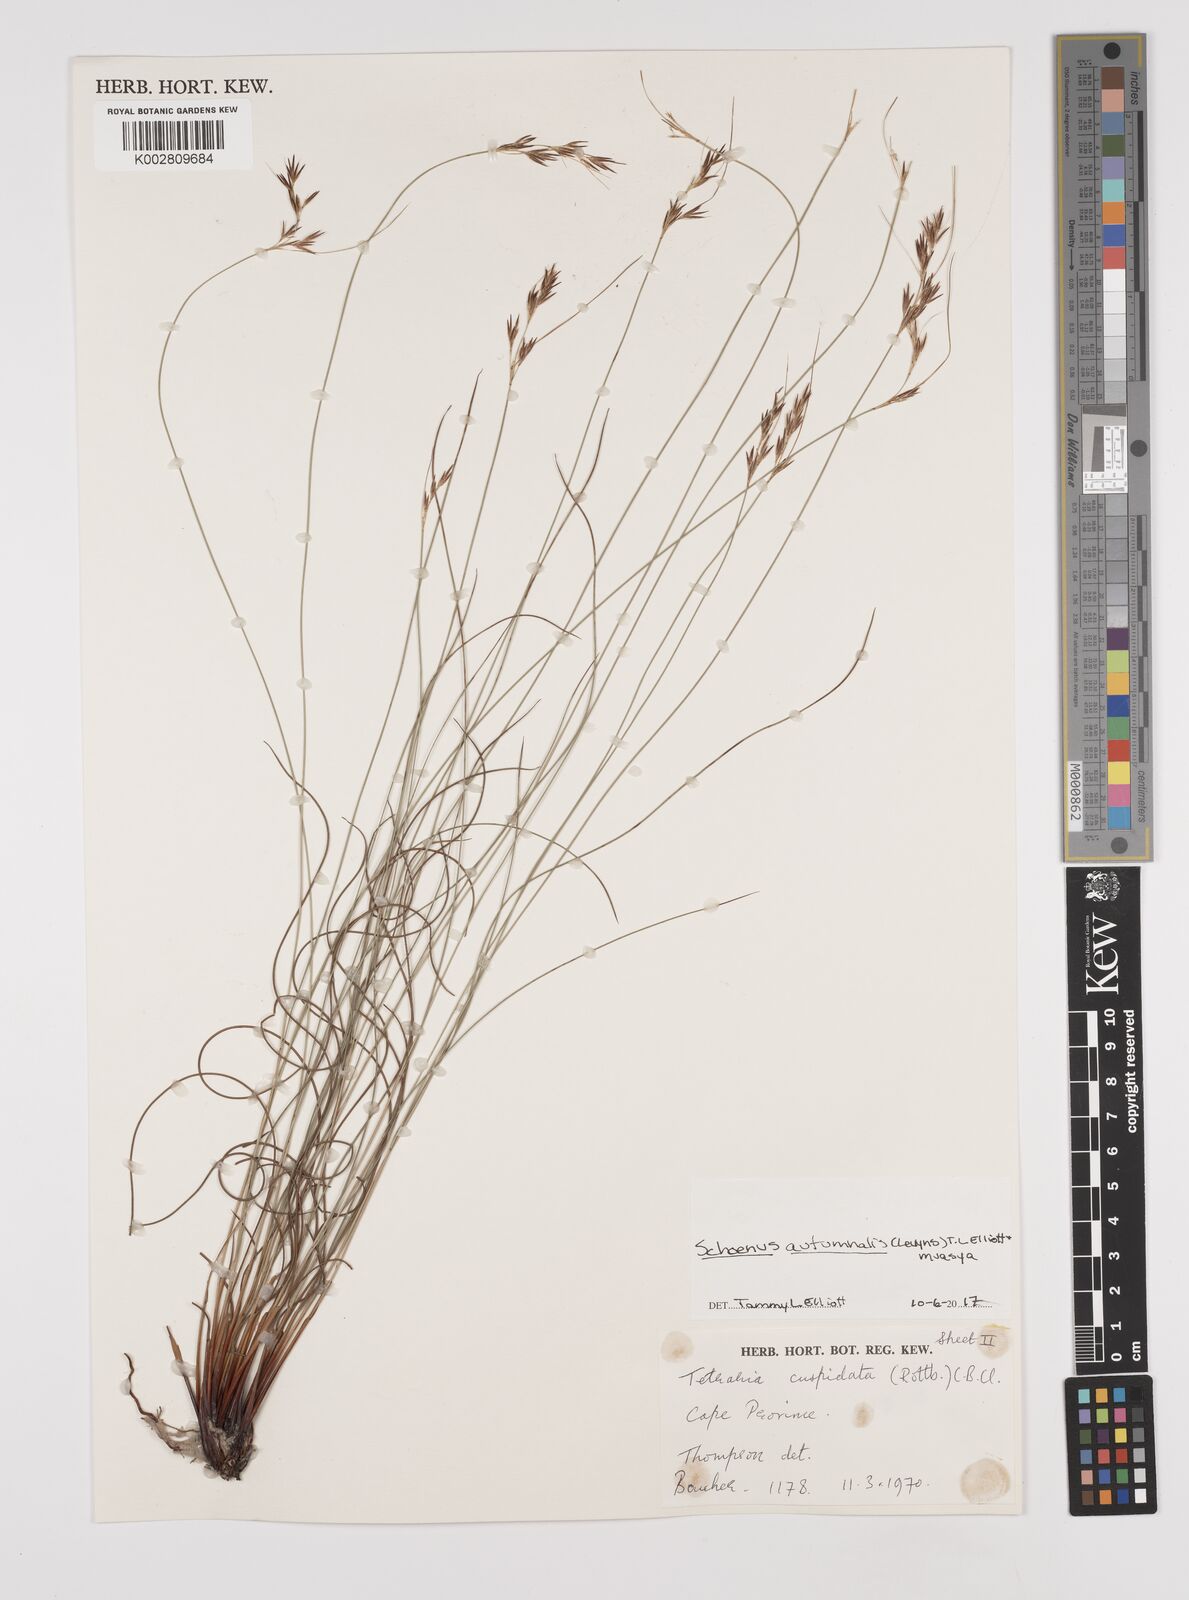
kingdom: Plantae
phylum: Tracheophyta
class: Liliopsida
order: Poales
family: Cyperaceae
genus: Schoenus
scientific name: Schoenus ligulatus
